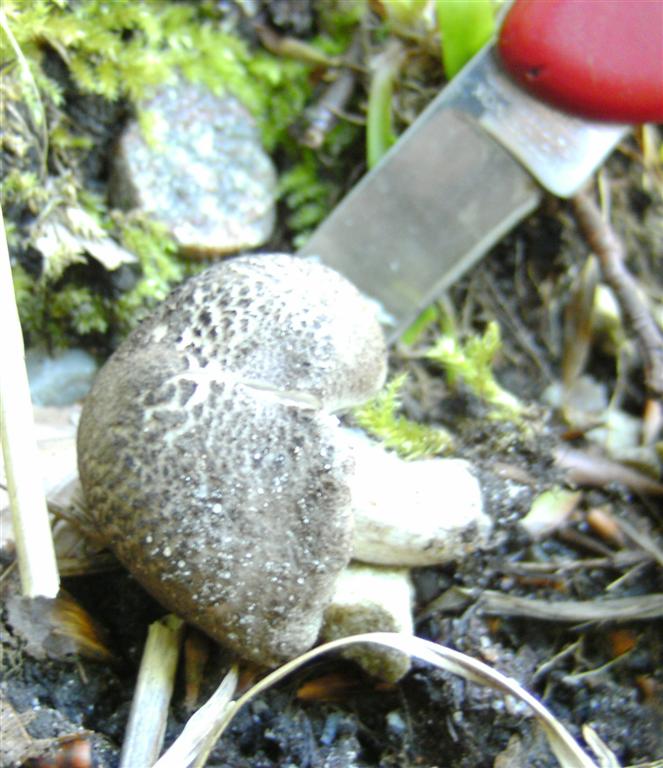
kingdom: Fungi
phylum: Basidiomycota
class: Agaricomycetes
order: Agaricales
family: Tricholomataceae
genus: Tricholoma
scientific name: Tricholoma scalpturatum
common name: gulplettet ridderhat
